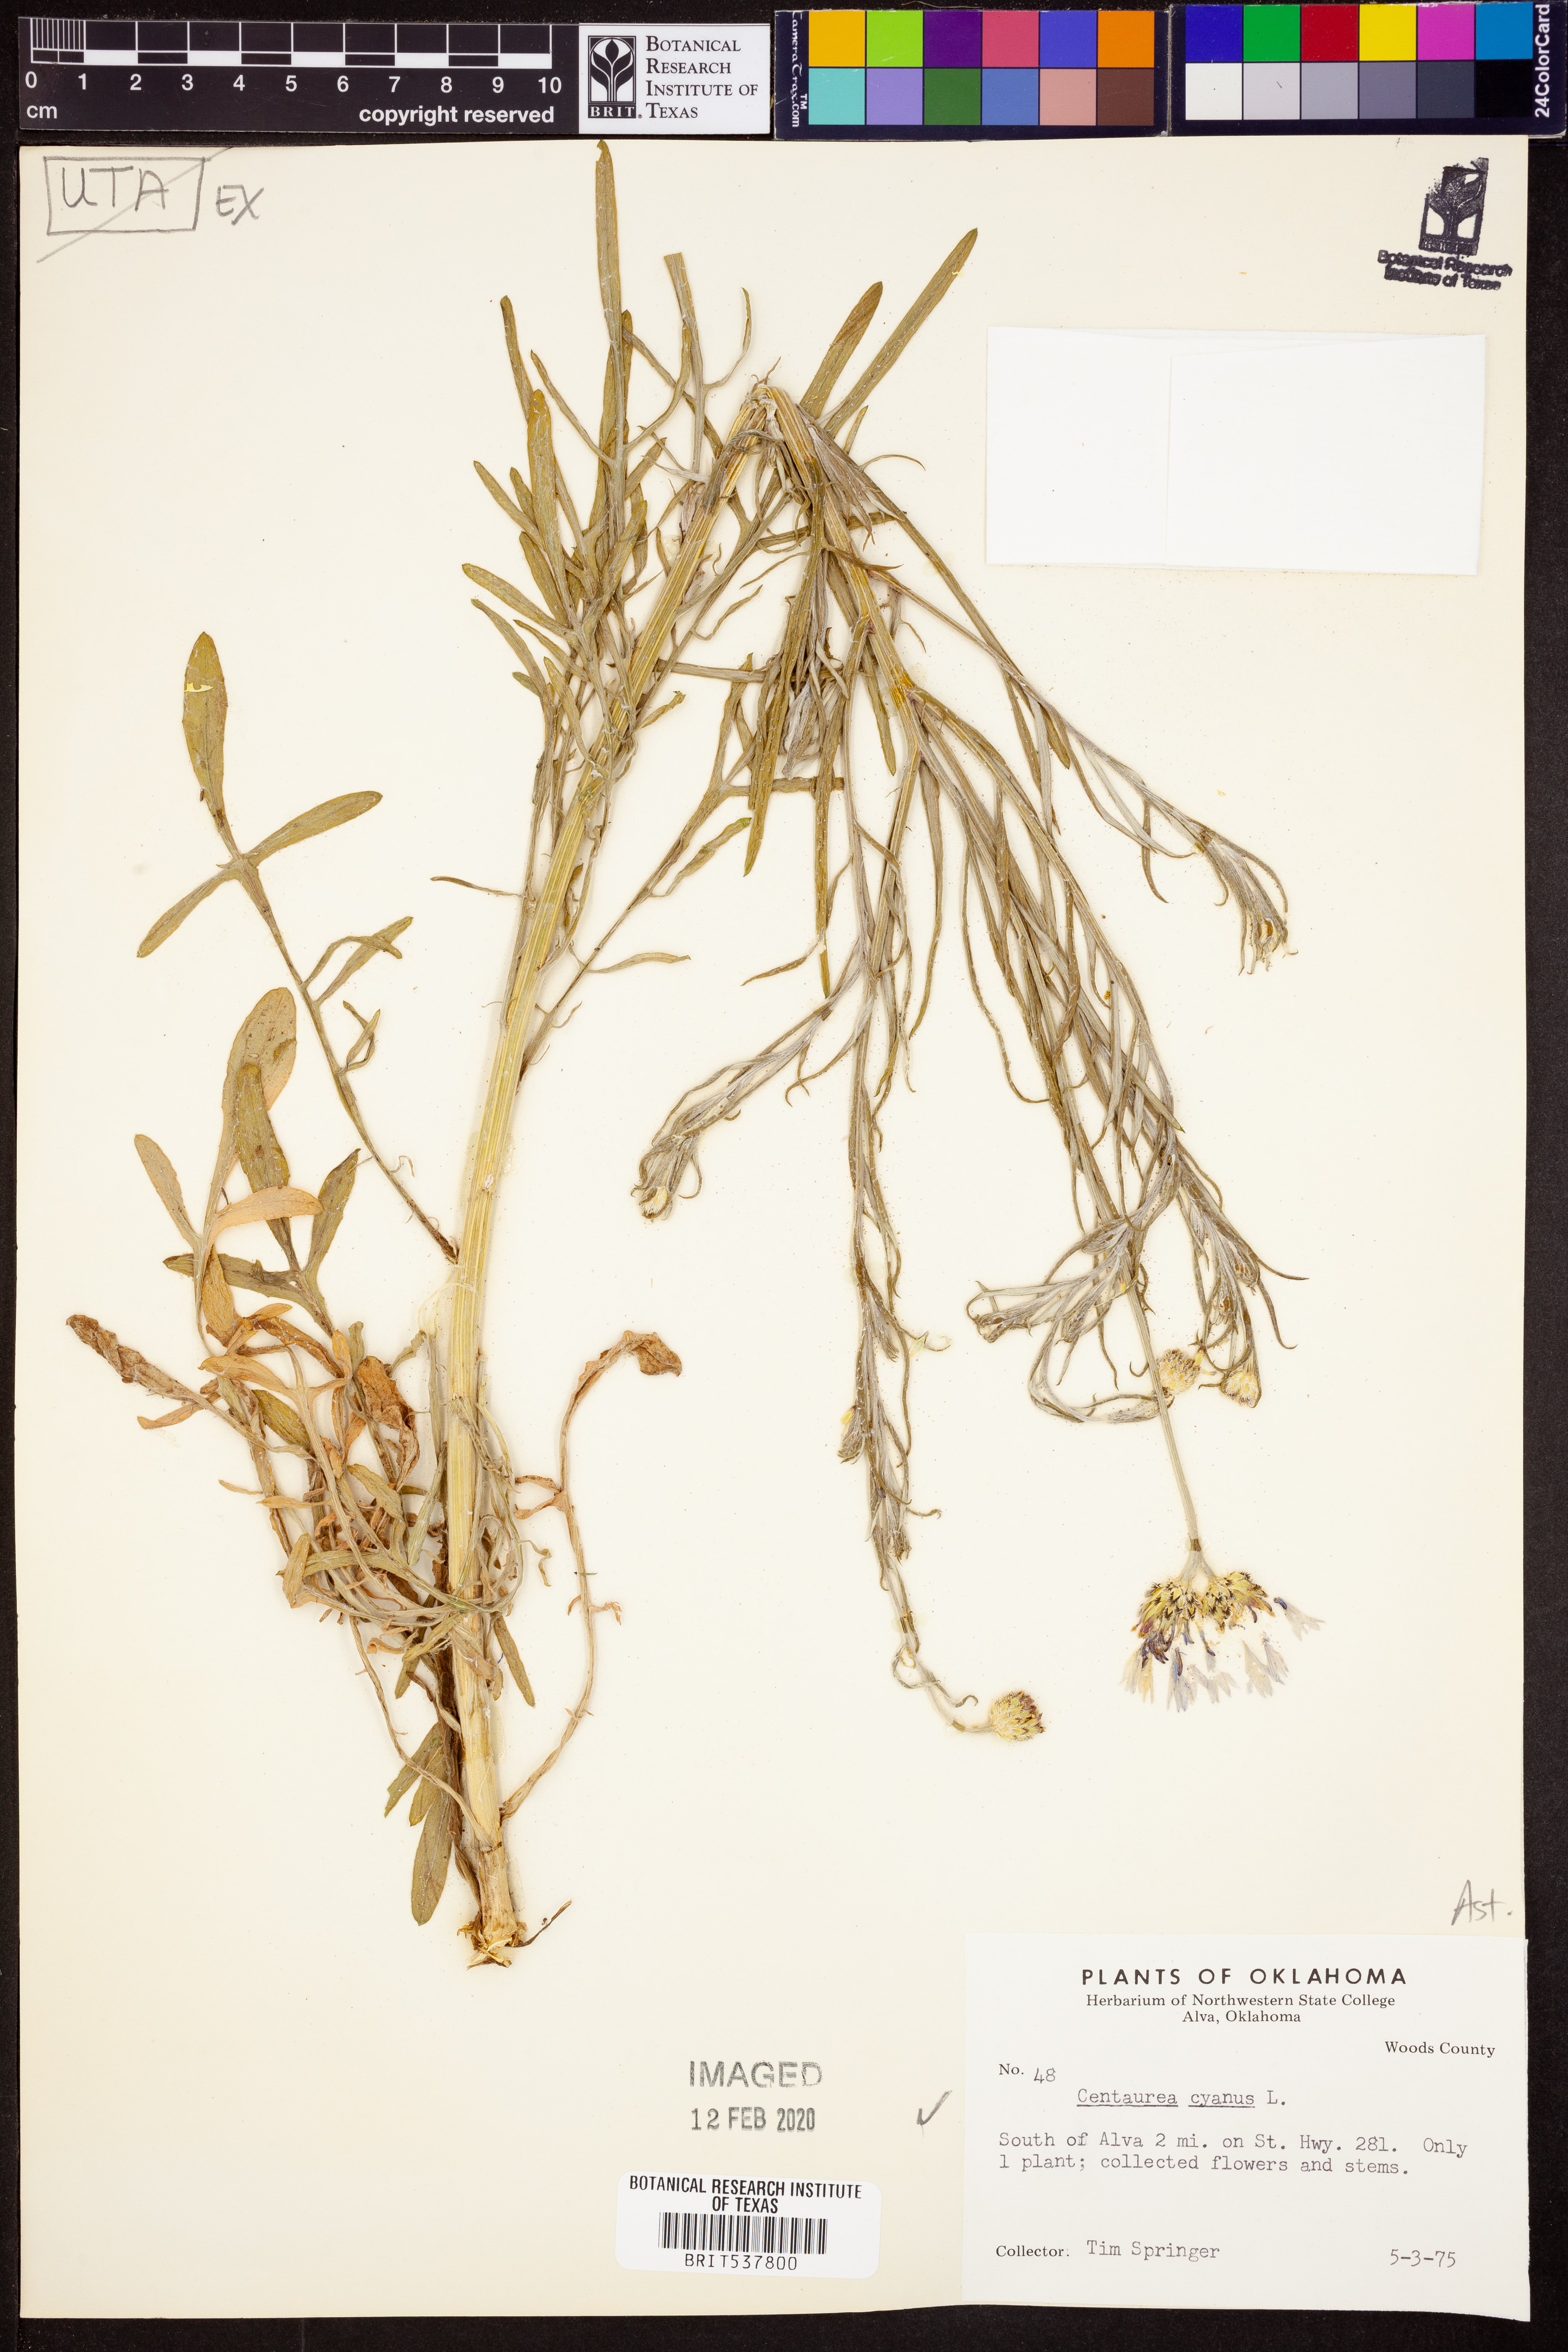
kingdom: Plantae
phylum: Tracheophyta
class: Magnoliopsida
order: Asterales
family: Asteraceae
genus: Centaurea
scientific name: Centaurea cyanus
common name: Cornflower
